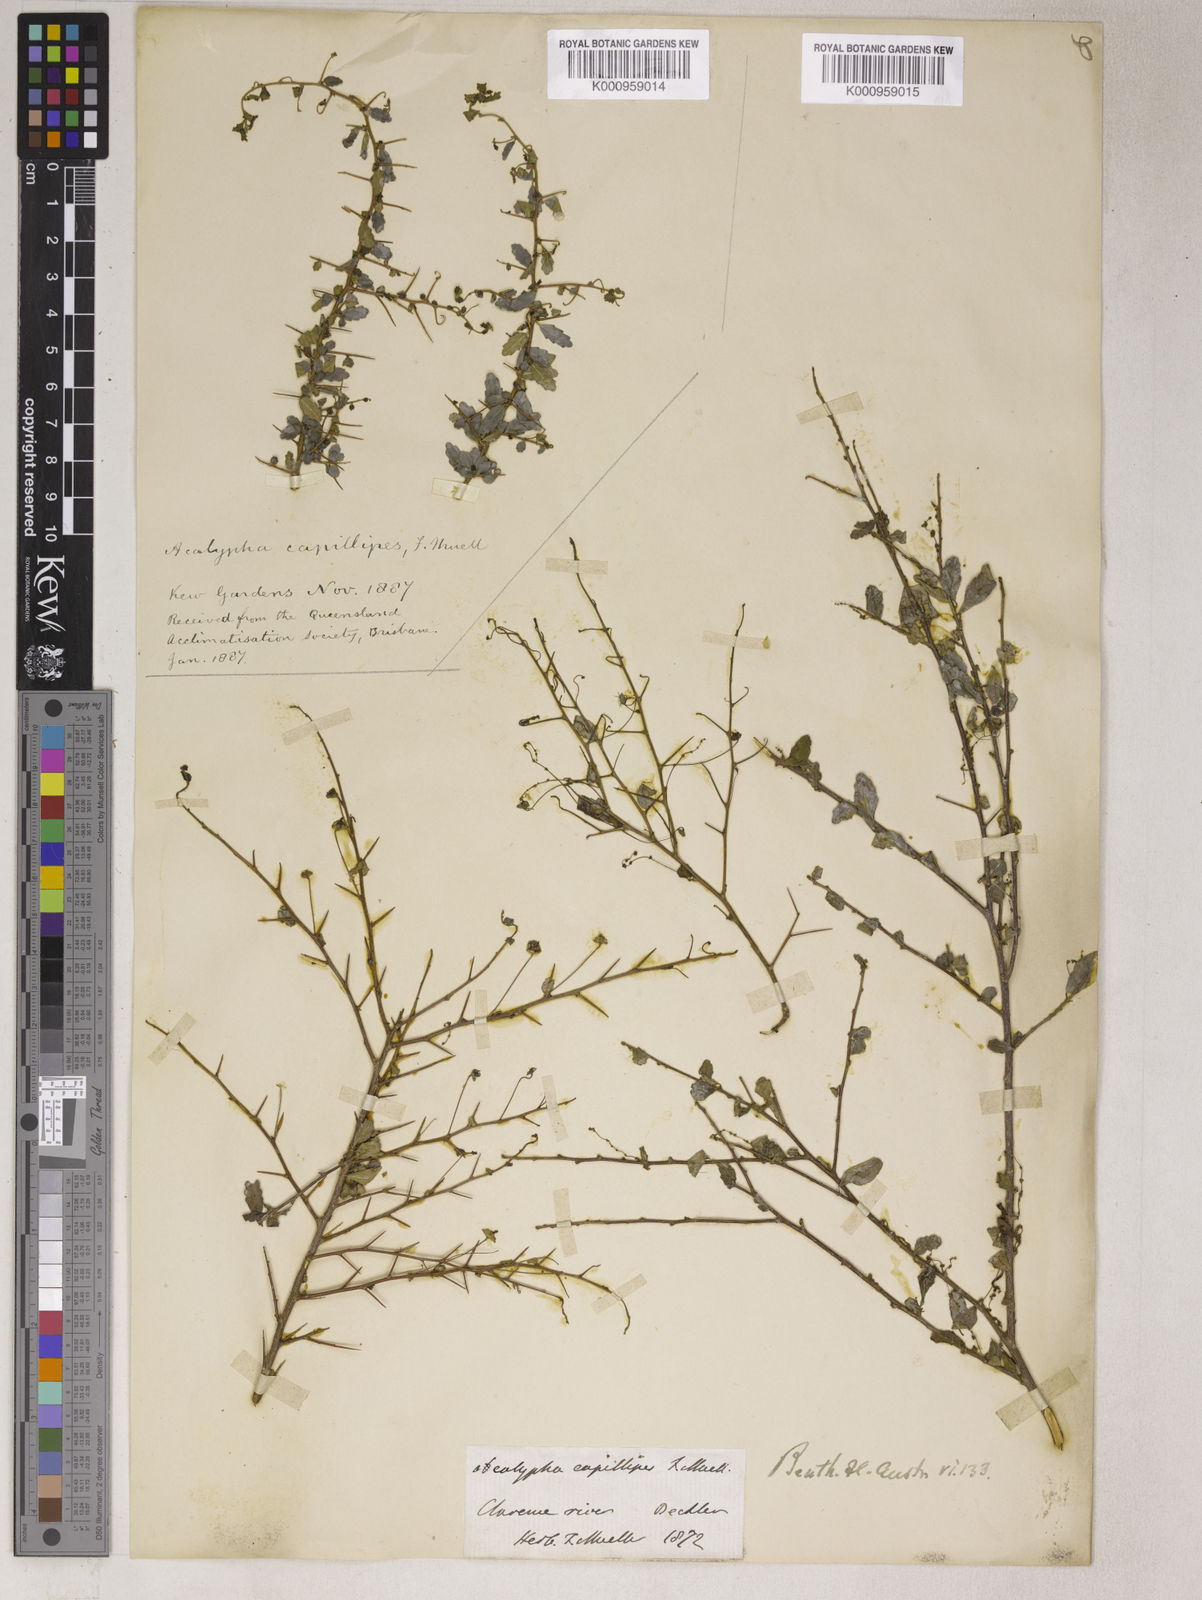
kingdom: Plantae
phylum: Tracheophyta
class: Magnoliopsida
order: Malpighiales
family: Euphorbiaceae
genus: Acalypha
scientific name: Acalypha
